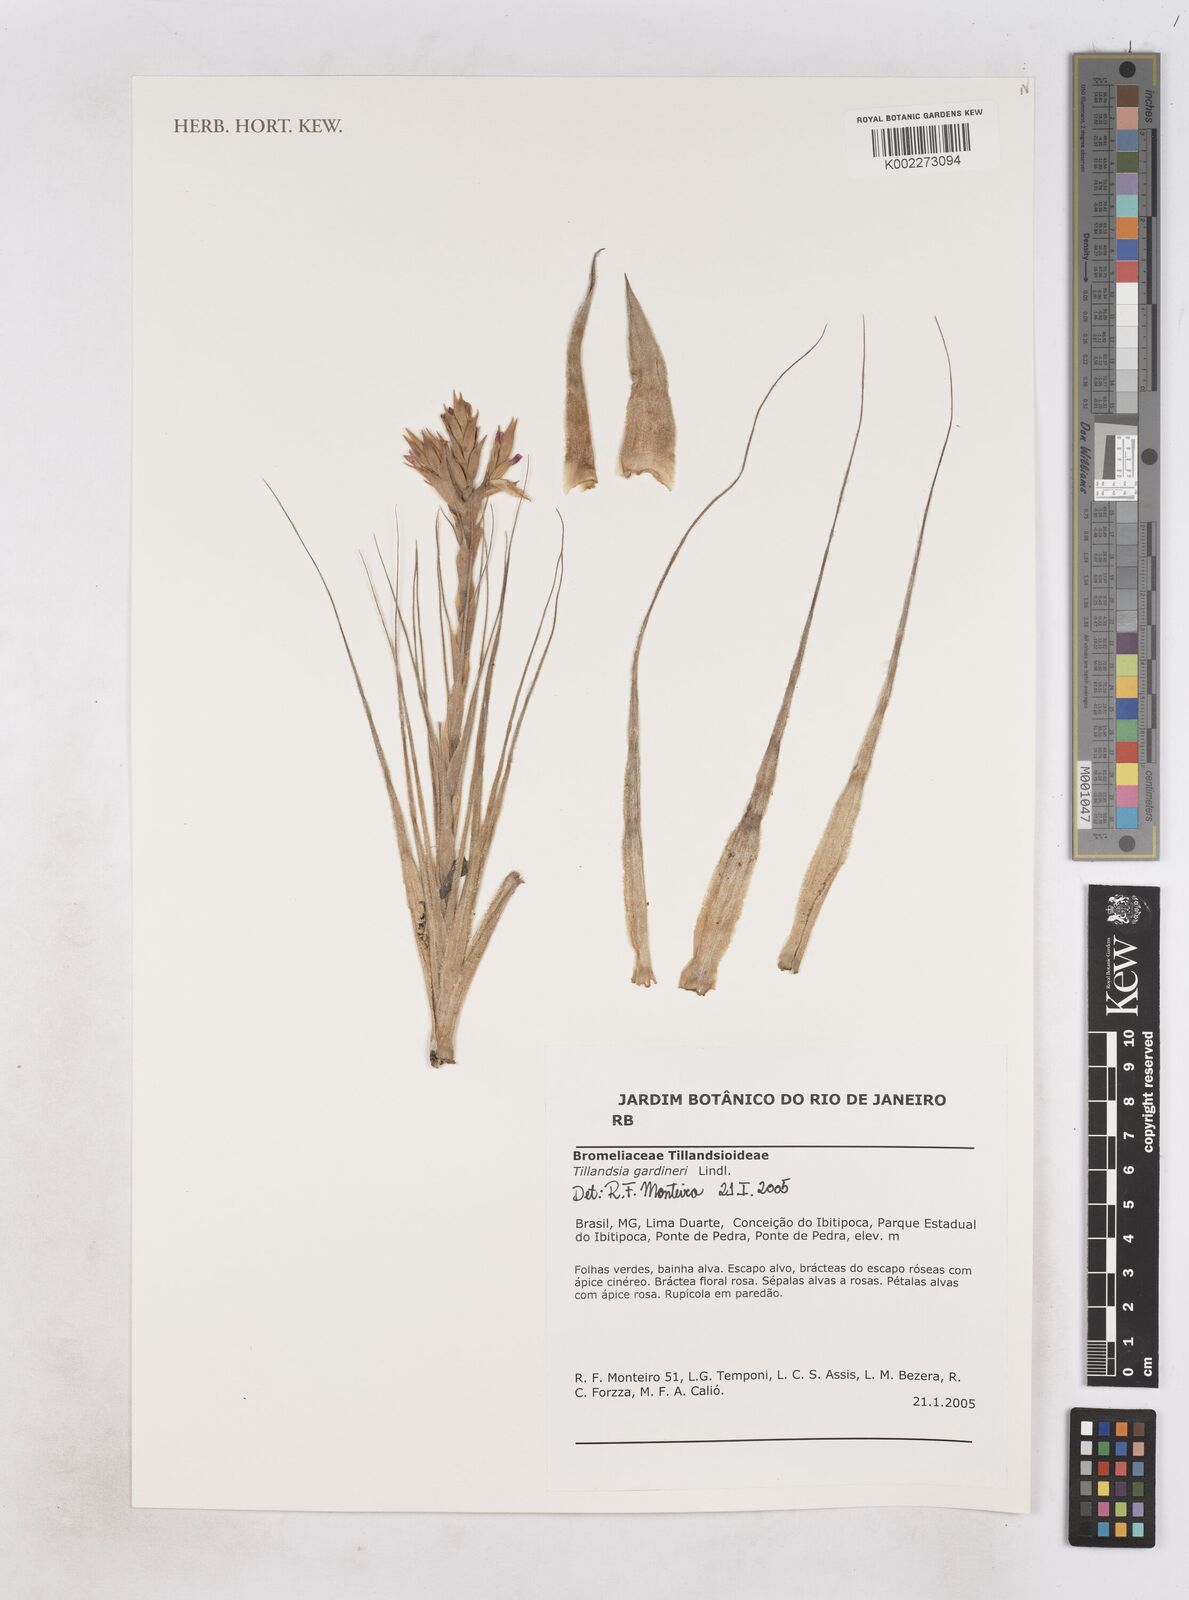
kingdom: Plantae
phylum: Tracheophyta
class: Liliopsida
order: Poales
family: Bromeliaceae
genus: Tillandsia
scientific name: Tillandsia gardneri
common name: Airplant
